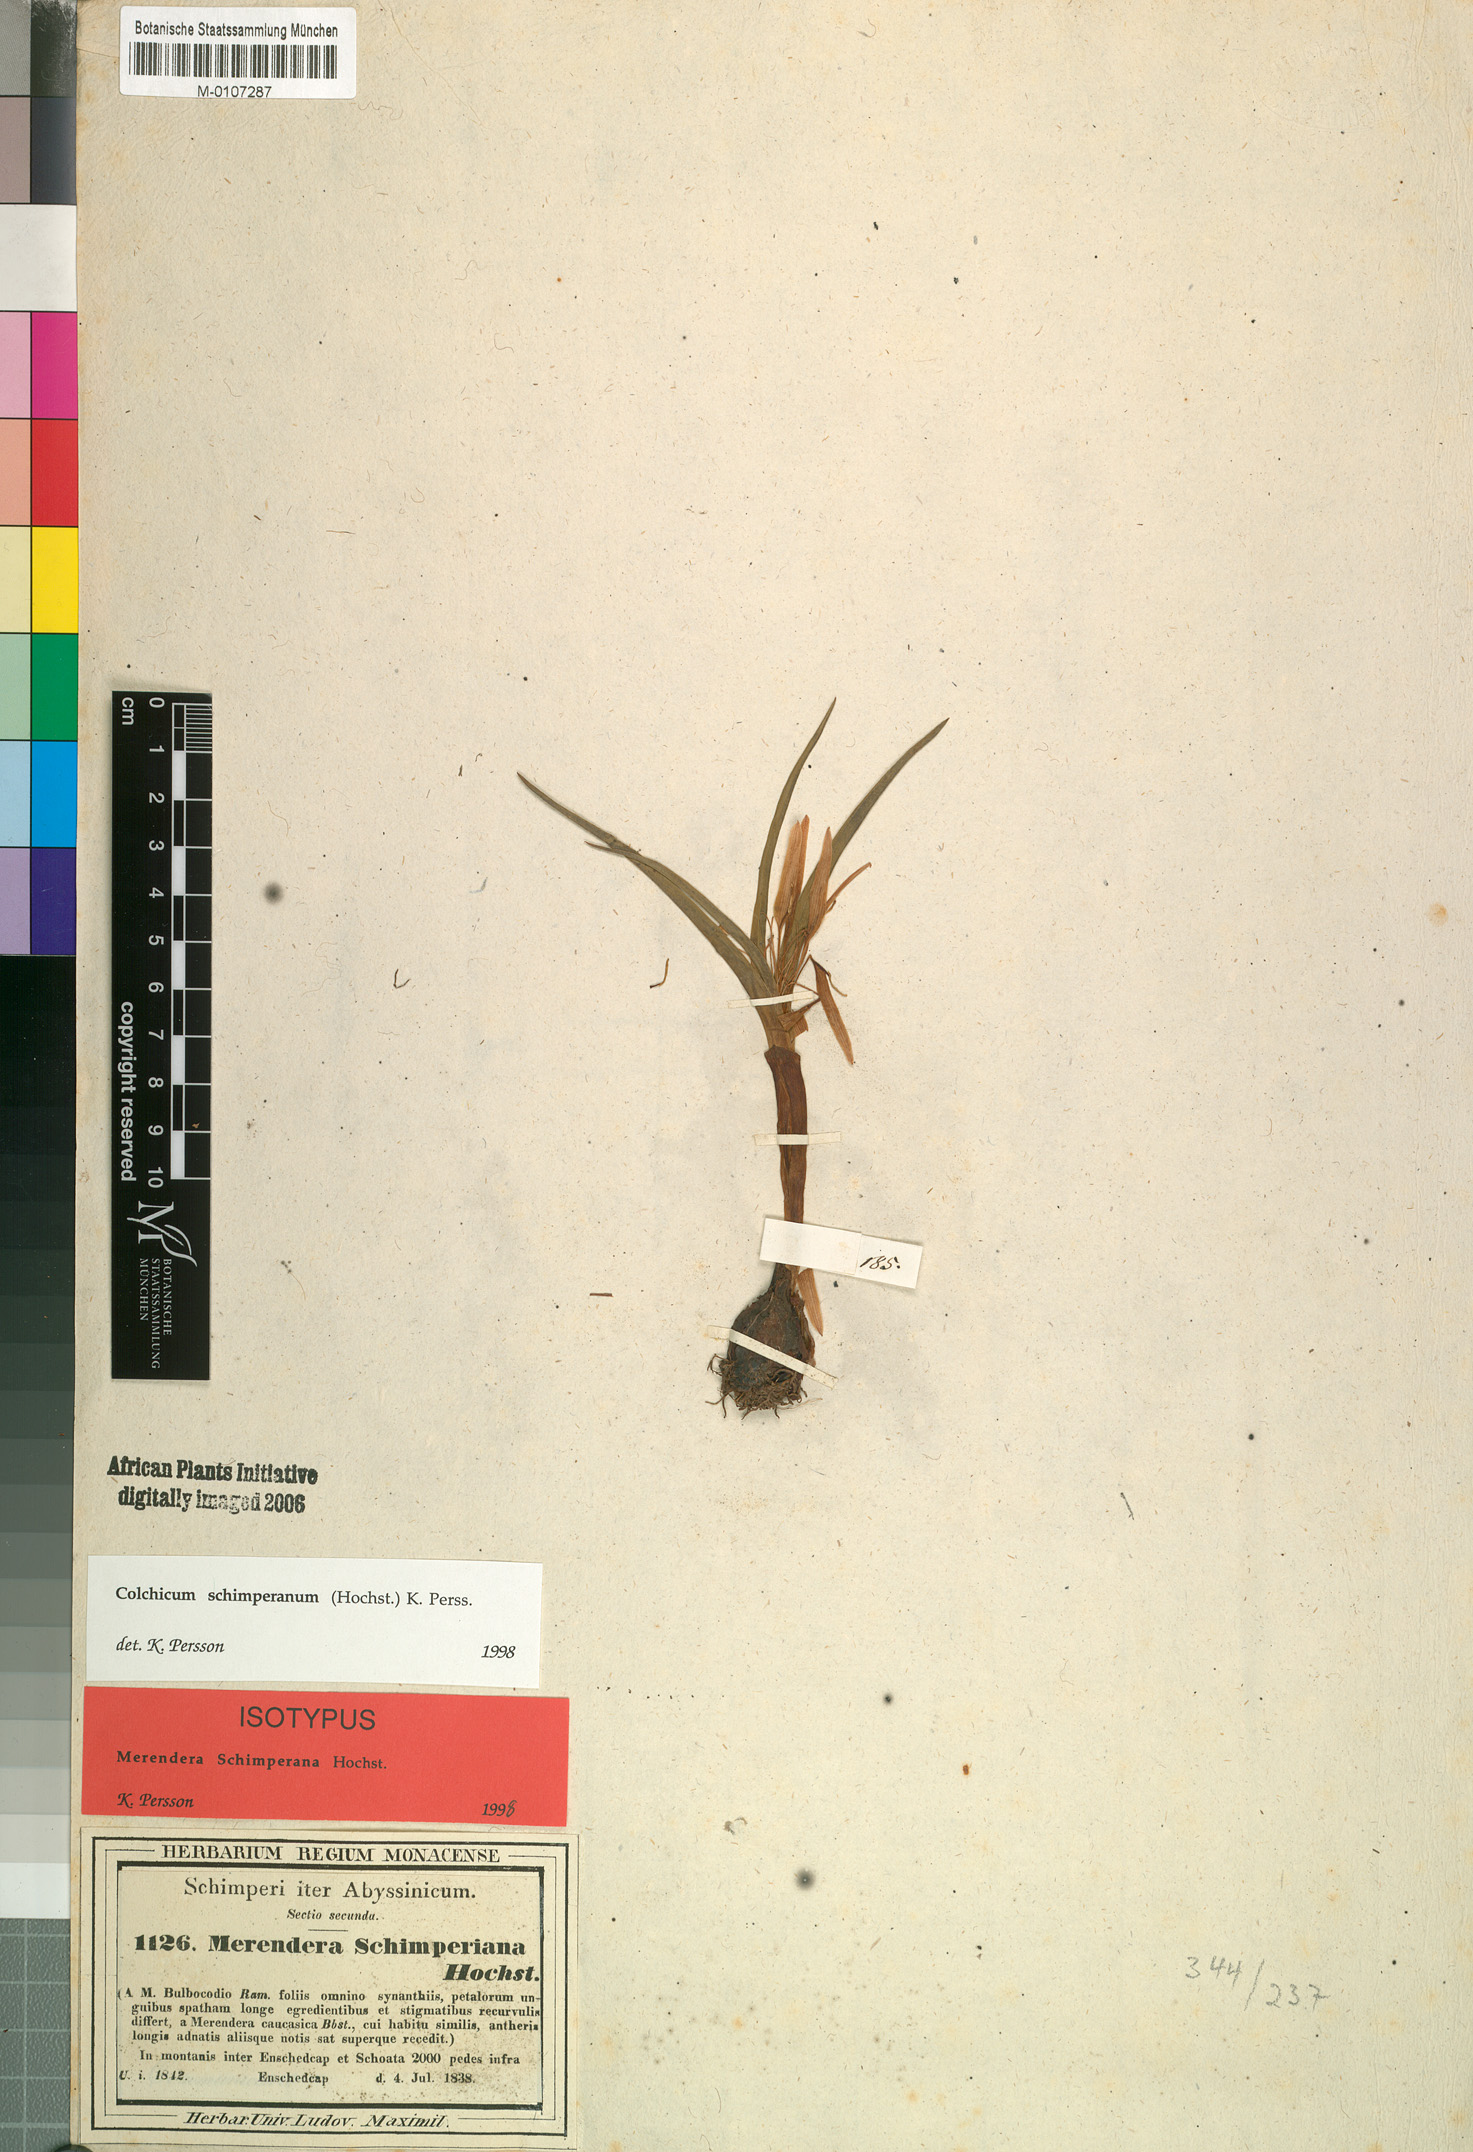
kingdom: Plantae
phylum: Tracheophyta
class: Liliopsida
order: Liliales
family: Colchicaceae
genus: Colchicum
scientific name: Colchicum schimperianum
